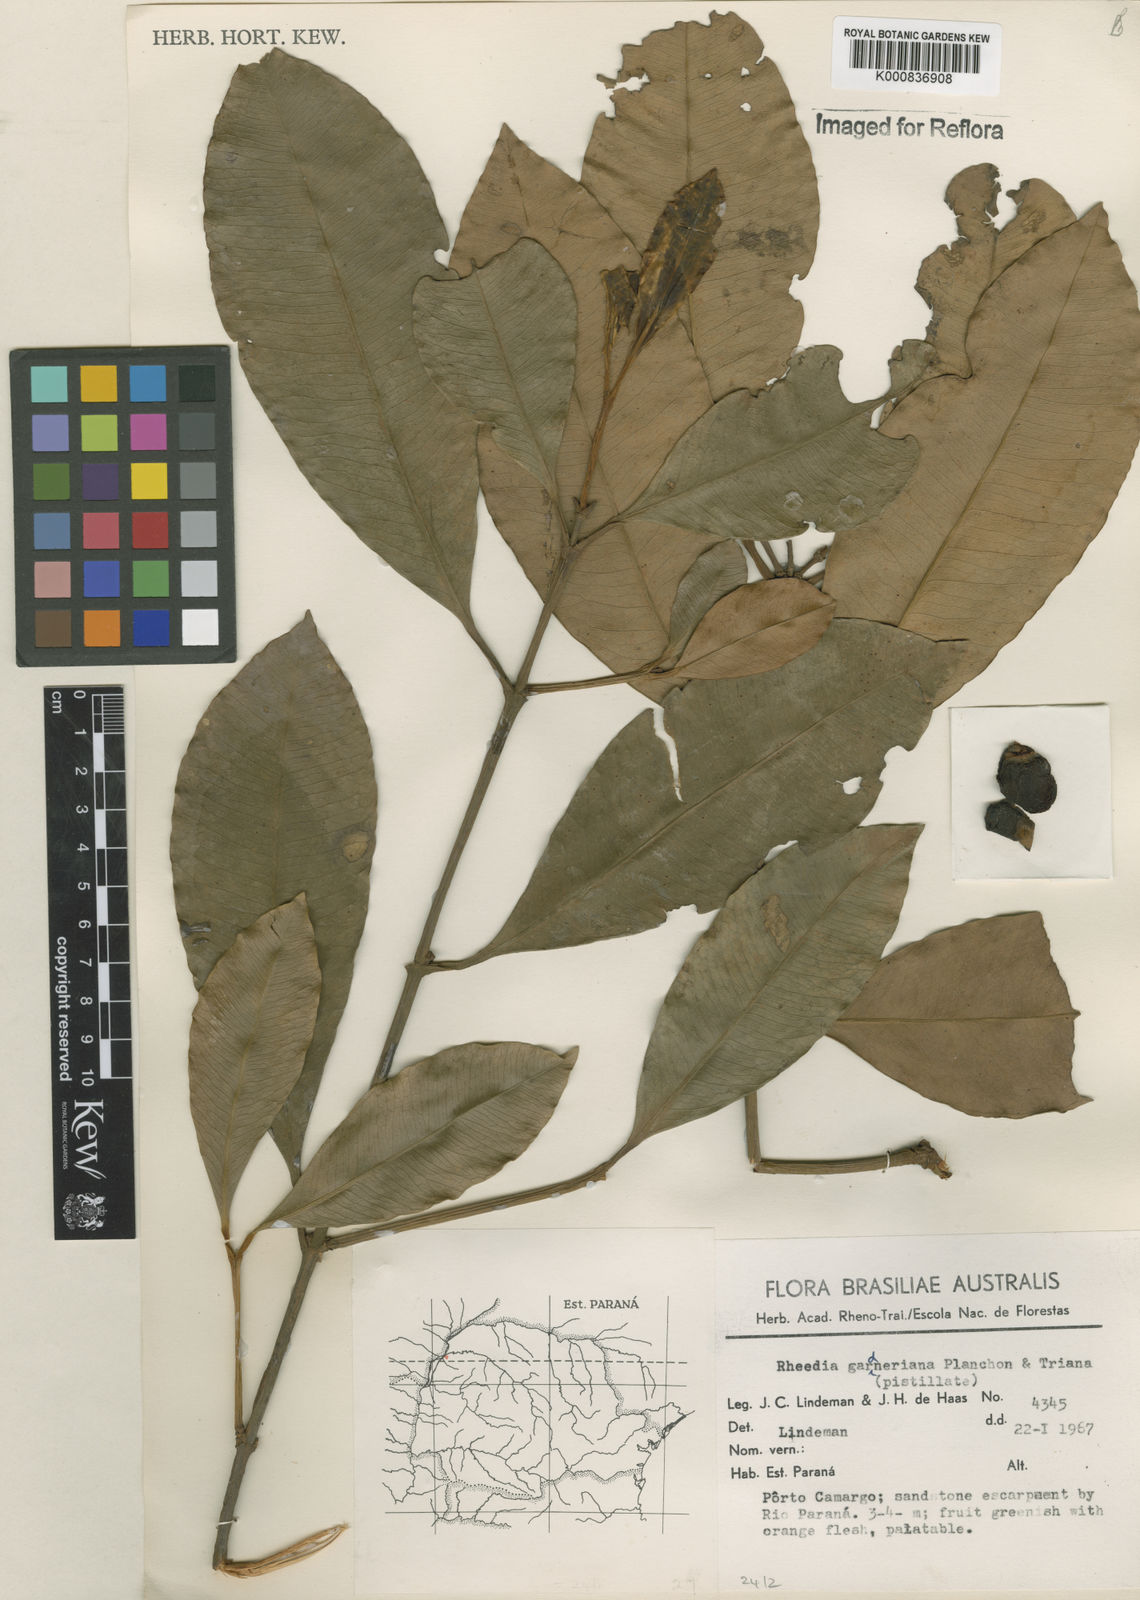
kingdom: Plantae
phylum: Tracheophyta
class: Magnoliopsida
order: Malpighiales
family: Clusiaceae
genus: Garcinia
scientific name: Garcinia gardneriana
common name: Achacha
